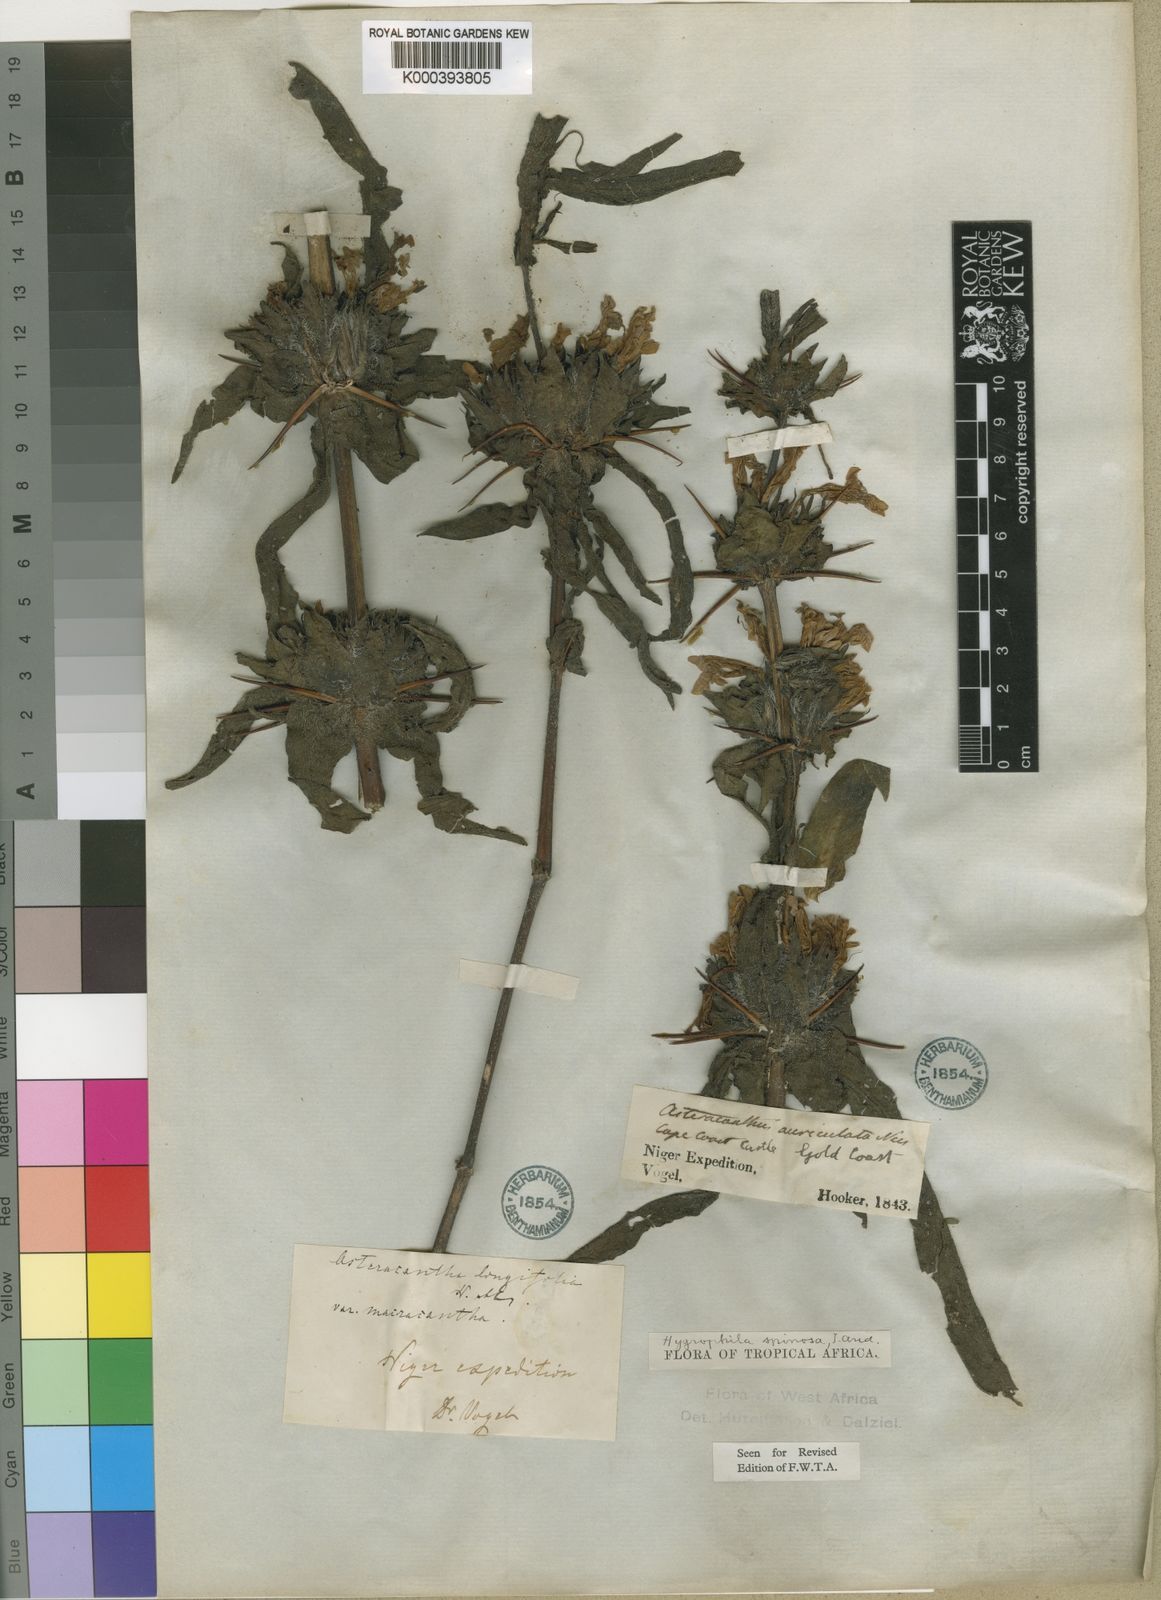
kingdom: Plantae
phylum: Tracheophyta
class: Magnoliopsida
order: Lamiales
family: Acanthaceae
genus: Hygrophila
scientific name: Hygrophila auriculata
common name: Hygrophila
